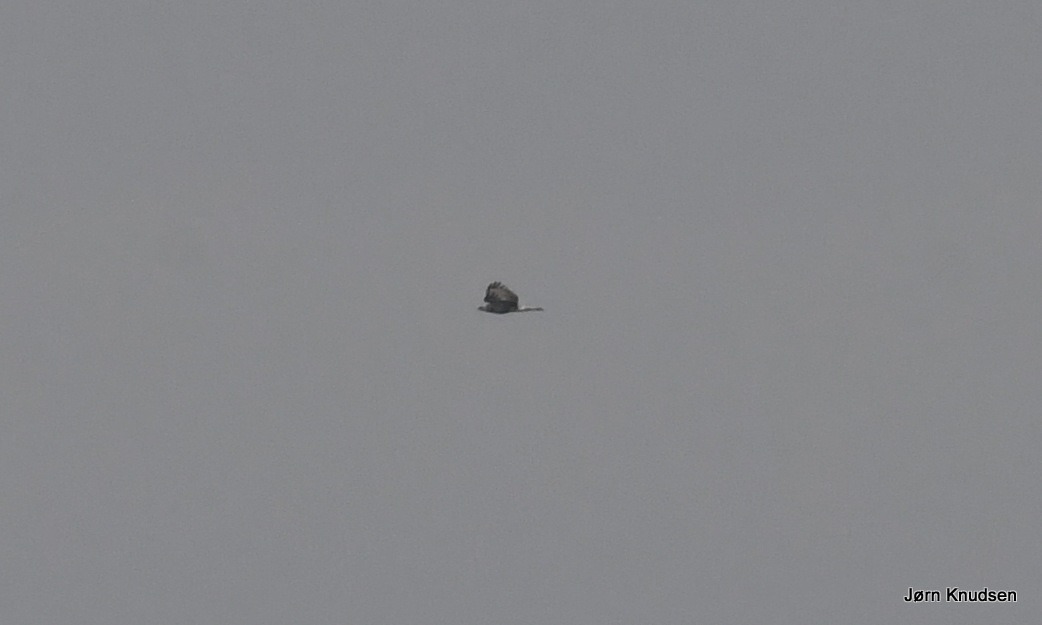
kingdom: Animalia
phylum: Chordata
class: Aves
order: Pelecaniformes
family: Ardeidae
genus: Ardea
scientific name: Ardea cinerea
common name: Fiskehejre
